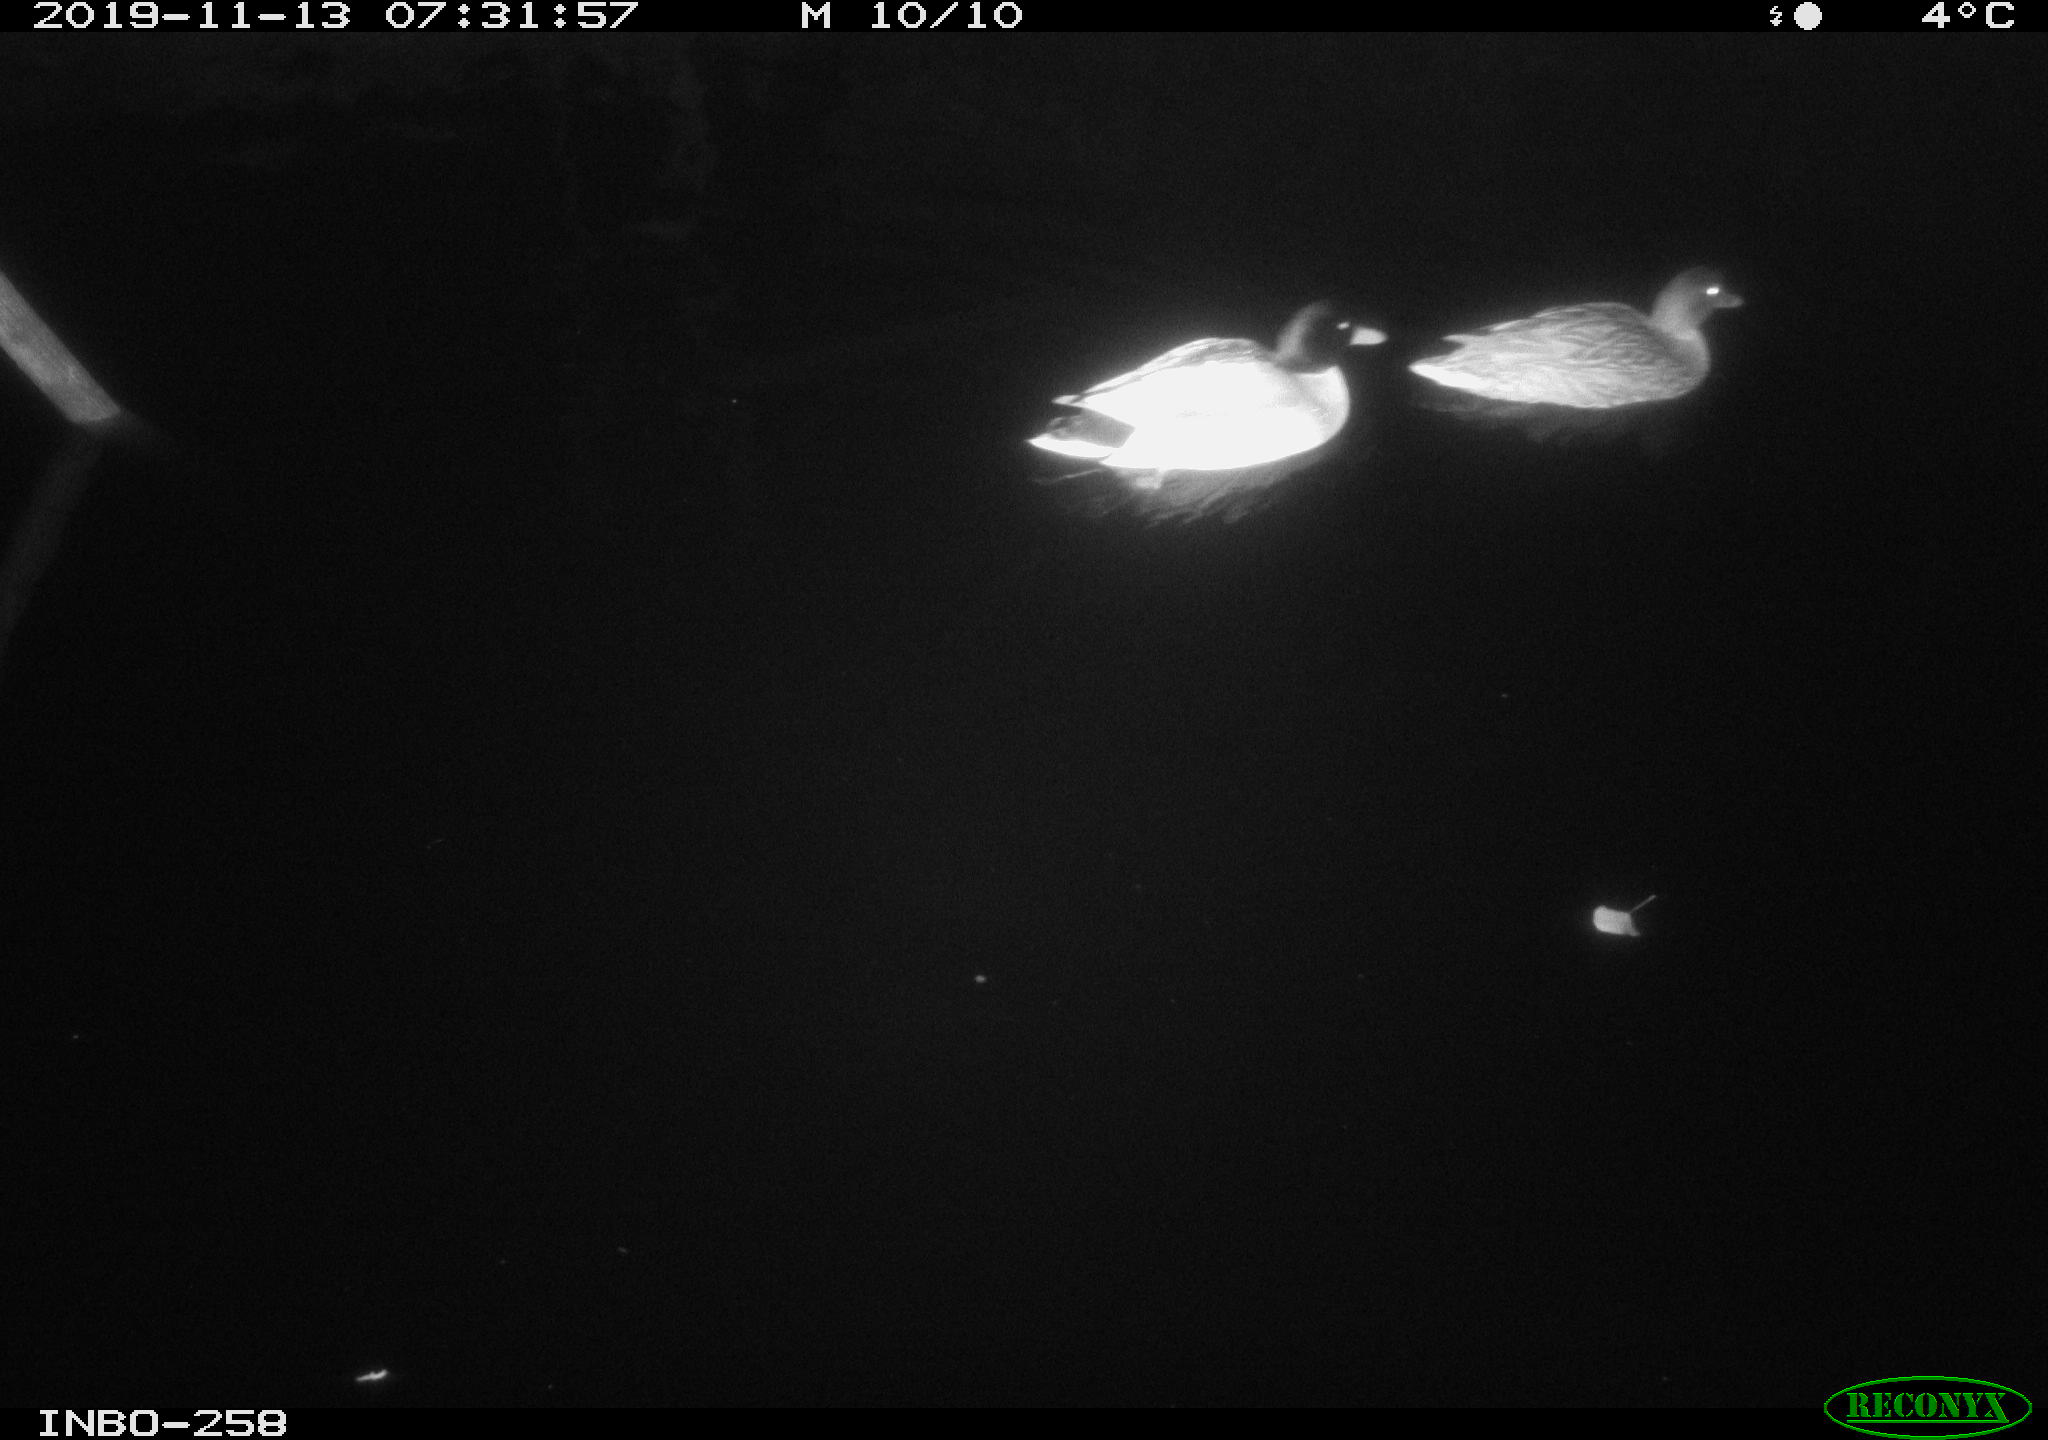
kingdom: Animalia
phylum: Chordata
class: Aves
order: Anseriformes
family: Anatidae
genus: Anas
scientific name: Anas platyrhynchos
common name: Mallard
